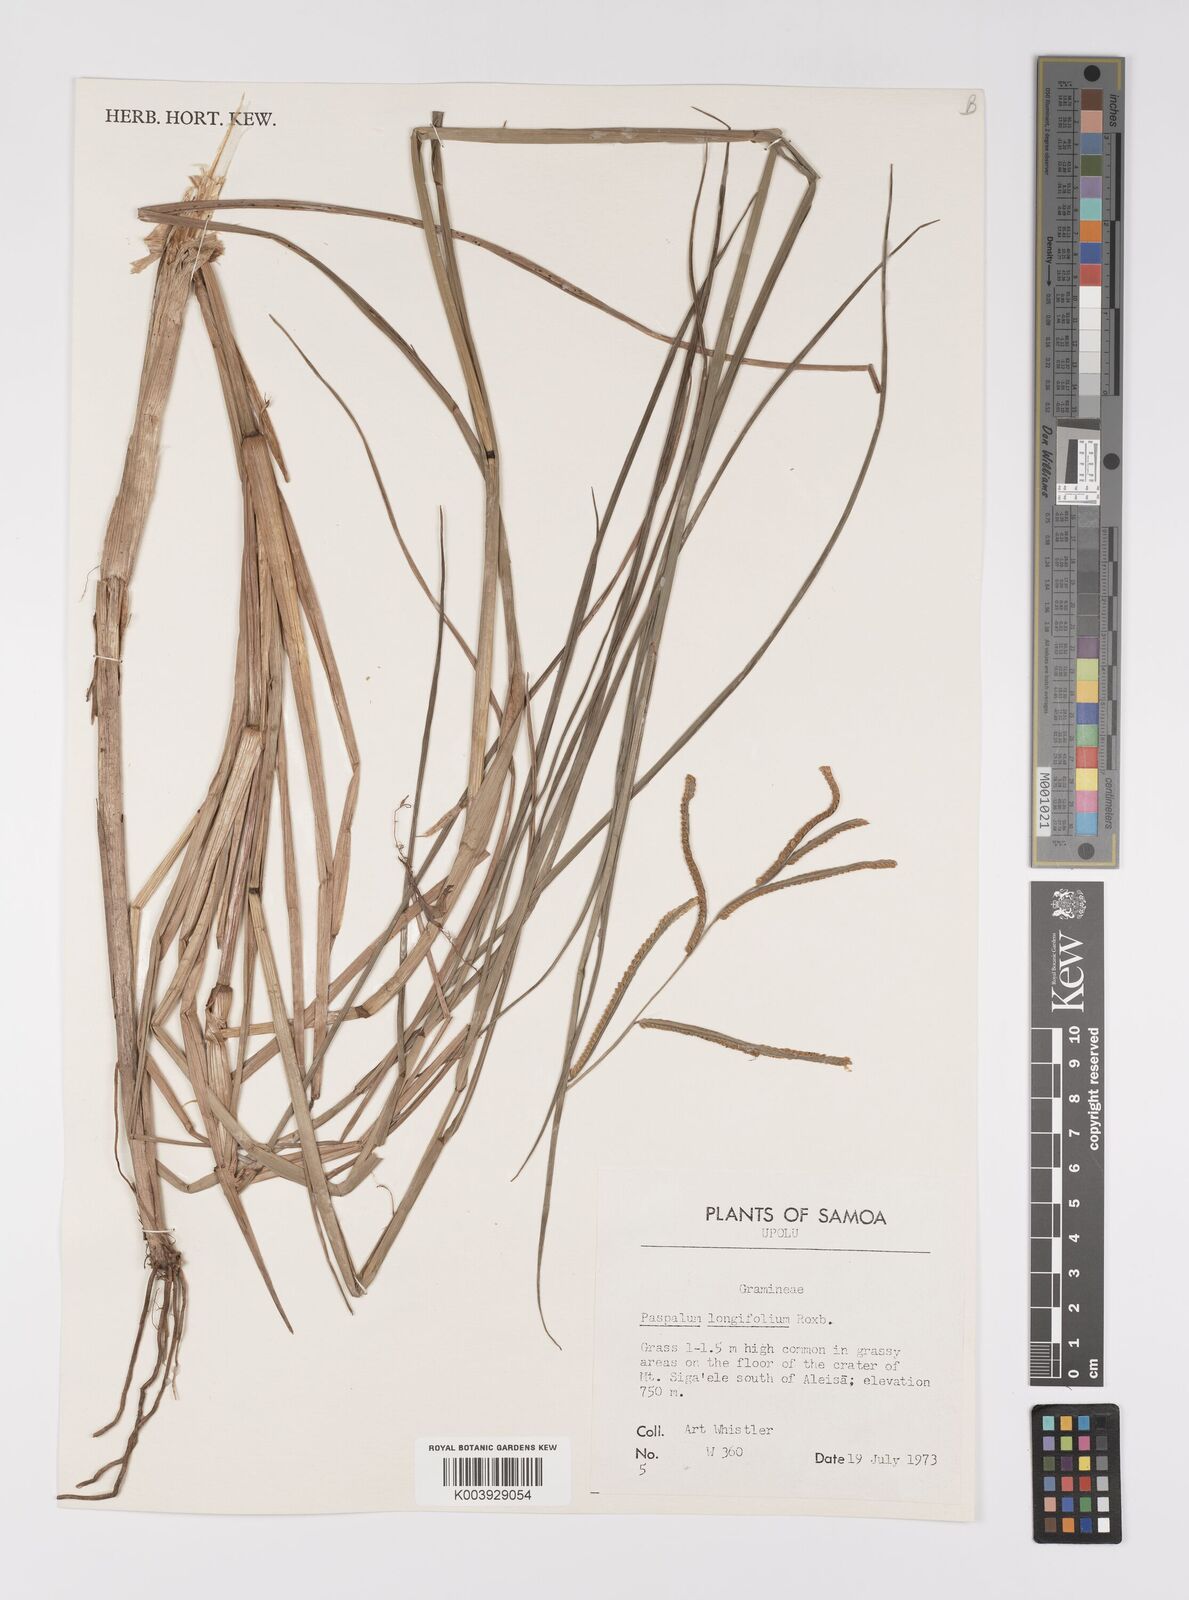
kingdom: Plantae
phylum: Tracheophyta
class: Liliopsida
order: Poales
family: Poaceae
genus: Paspalum
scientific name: Paspalum scrobiculatum
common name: Kodo millet
